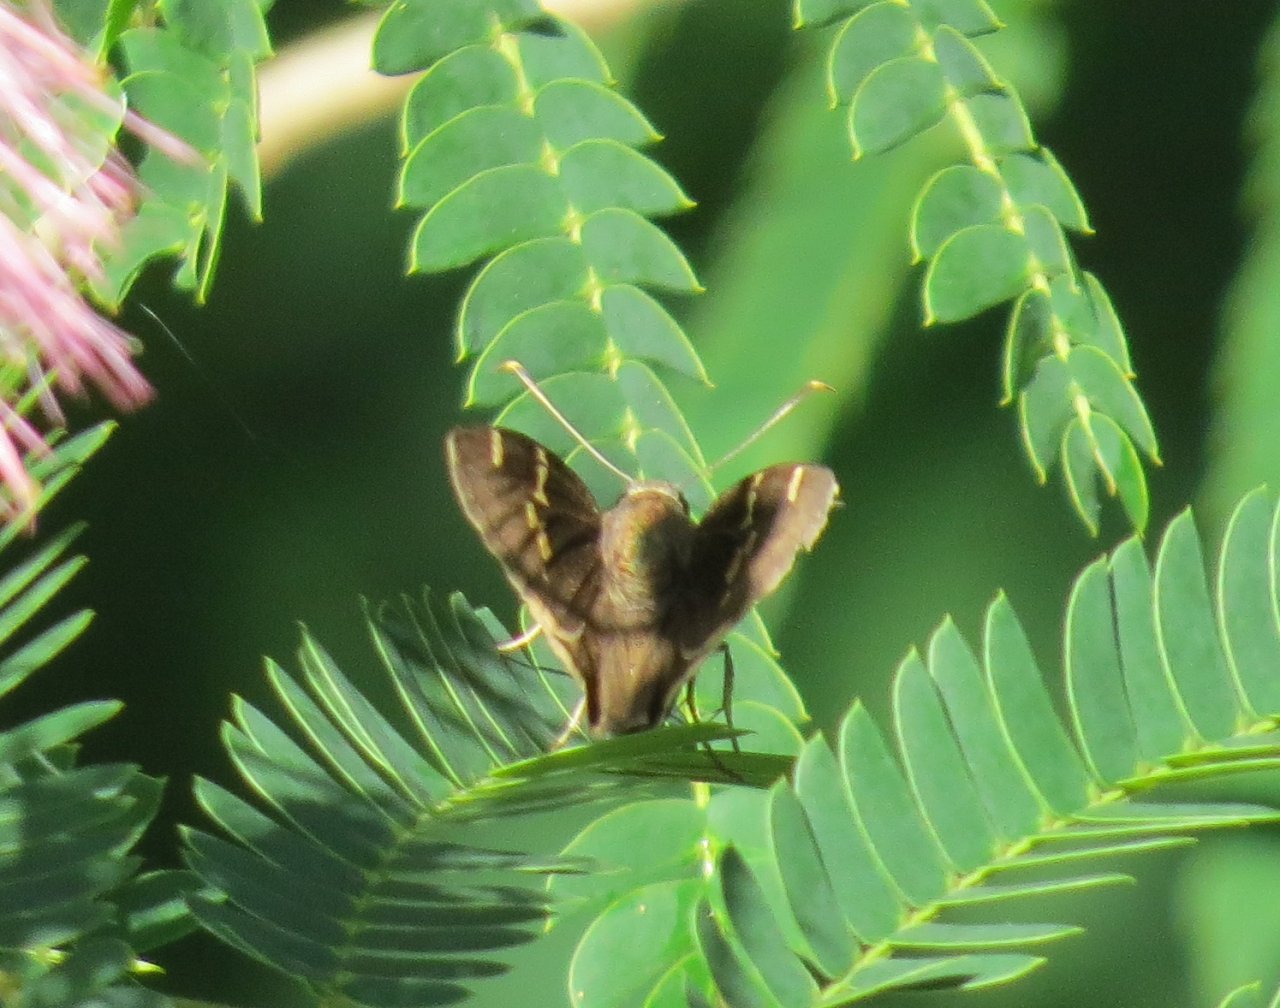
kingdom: Animalia
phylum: Arthropoda
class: Insecta
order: Lepidoptera
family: Hesperiidae
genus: Autochton
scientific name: Autochton
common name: Southern Cloudywing
